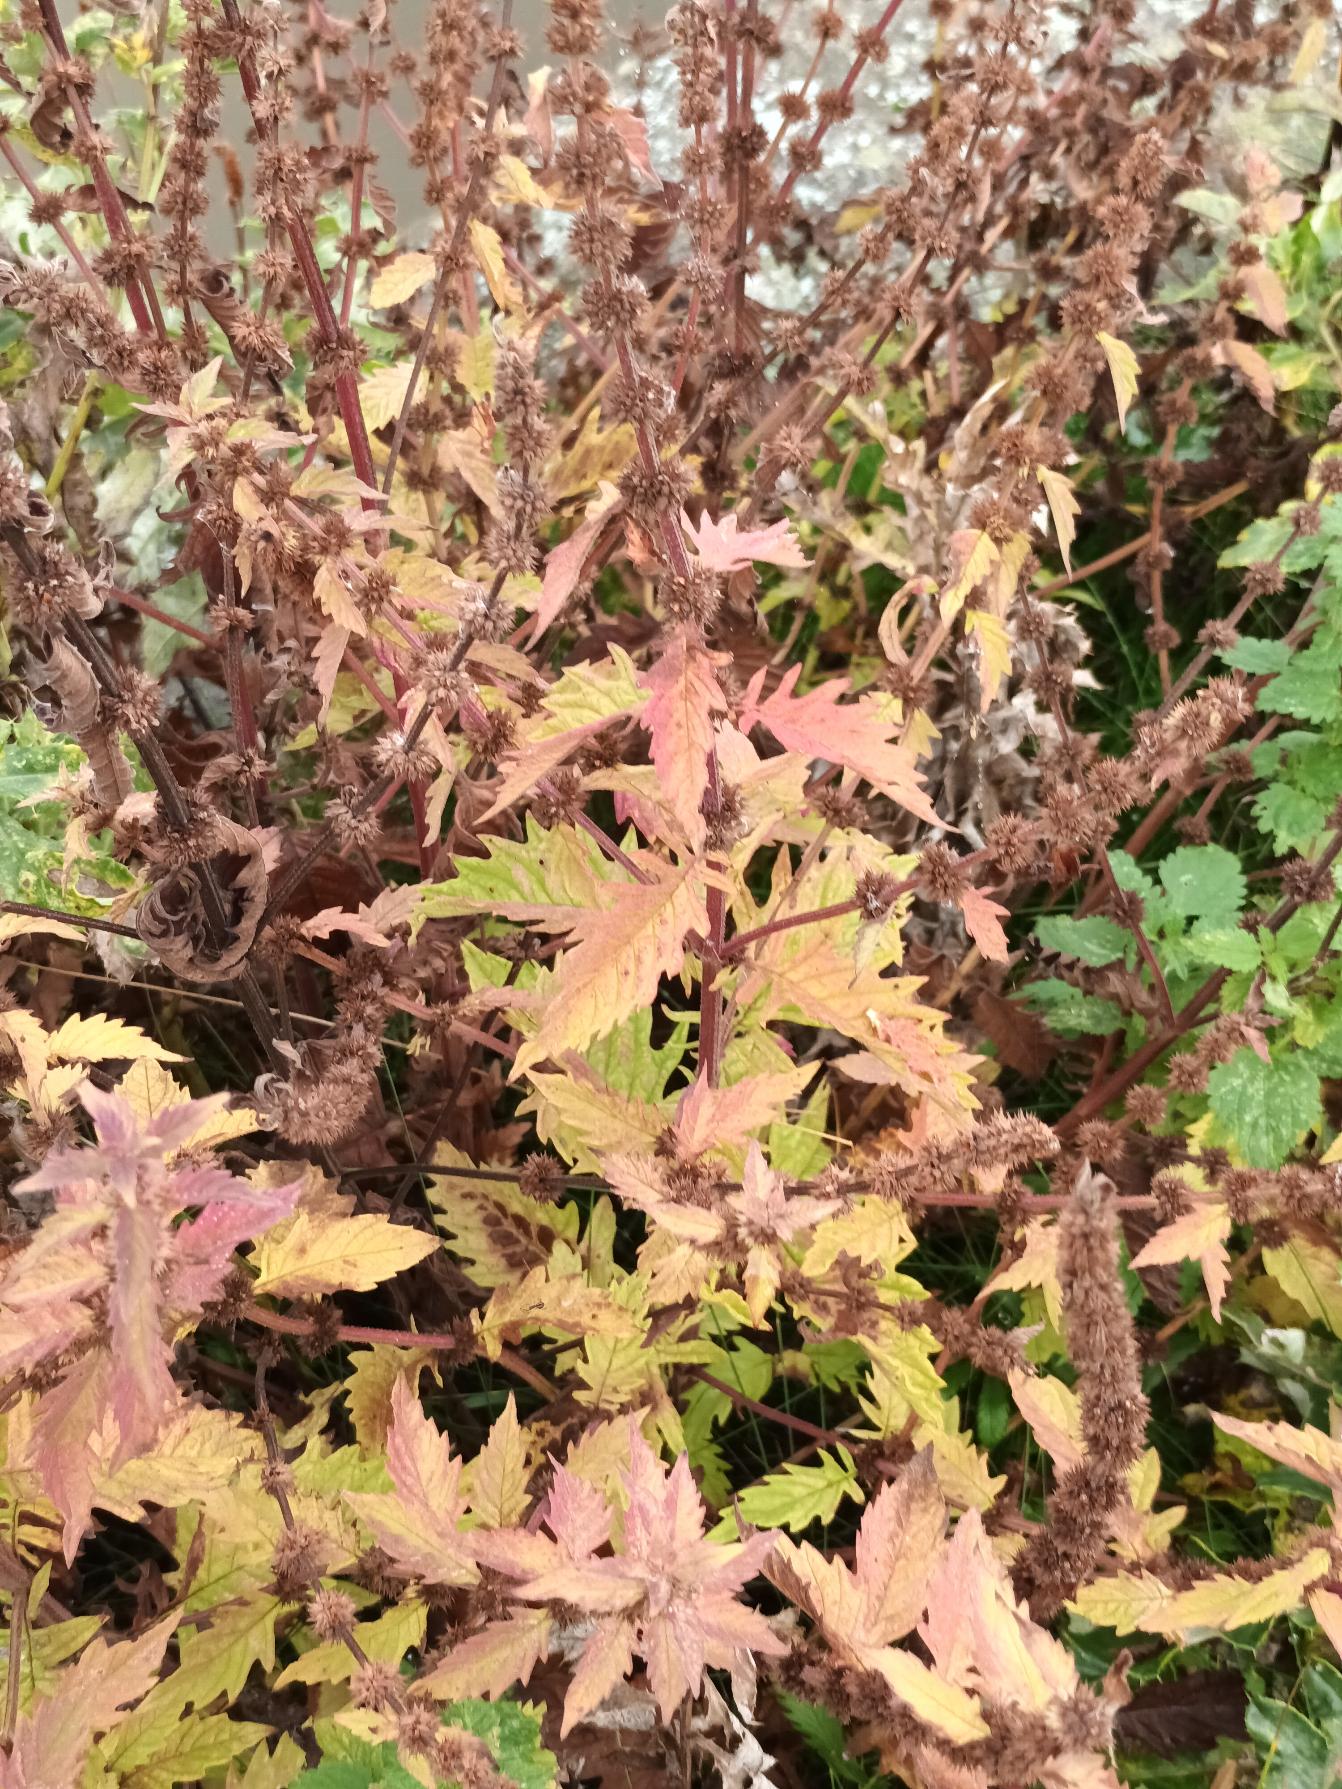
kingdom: Plantae
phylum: Tracheophyta
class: Magnoliopsida
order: Lamiales
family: Lamiaceae
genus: Lycopus
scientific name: Lycopus europaeus
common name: Sværtevæld
